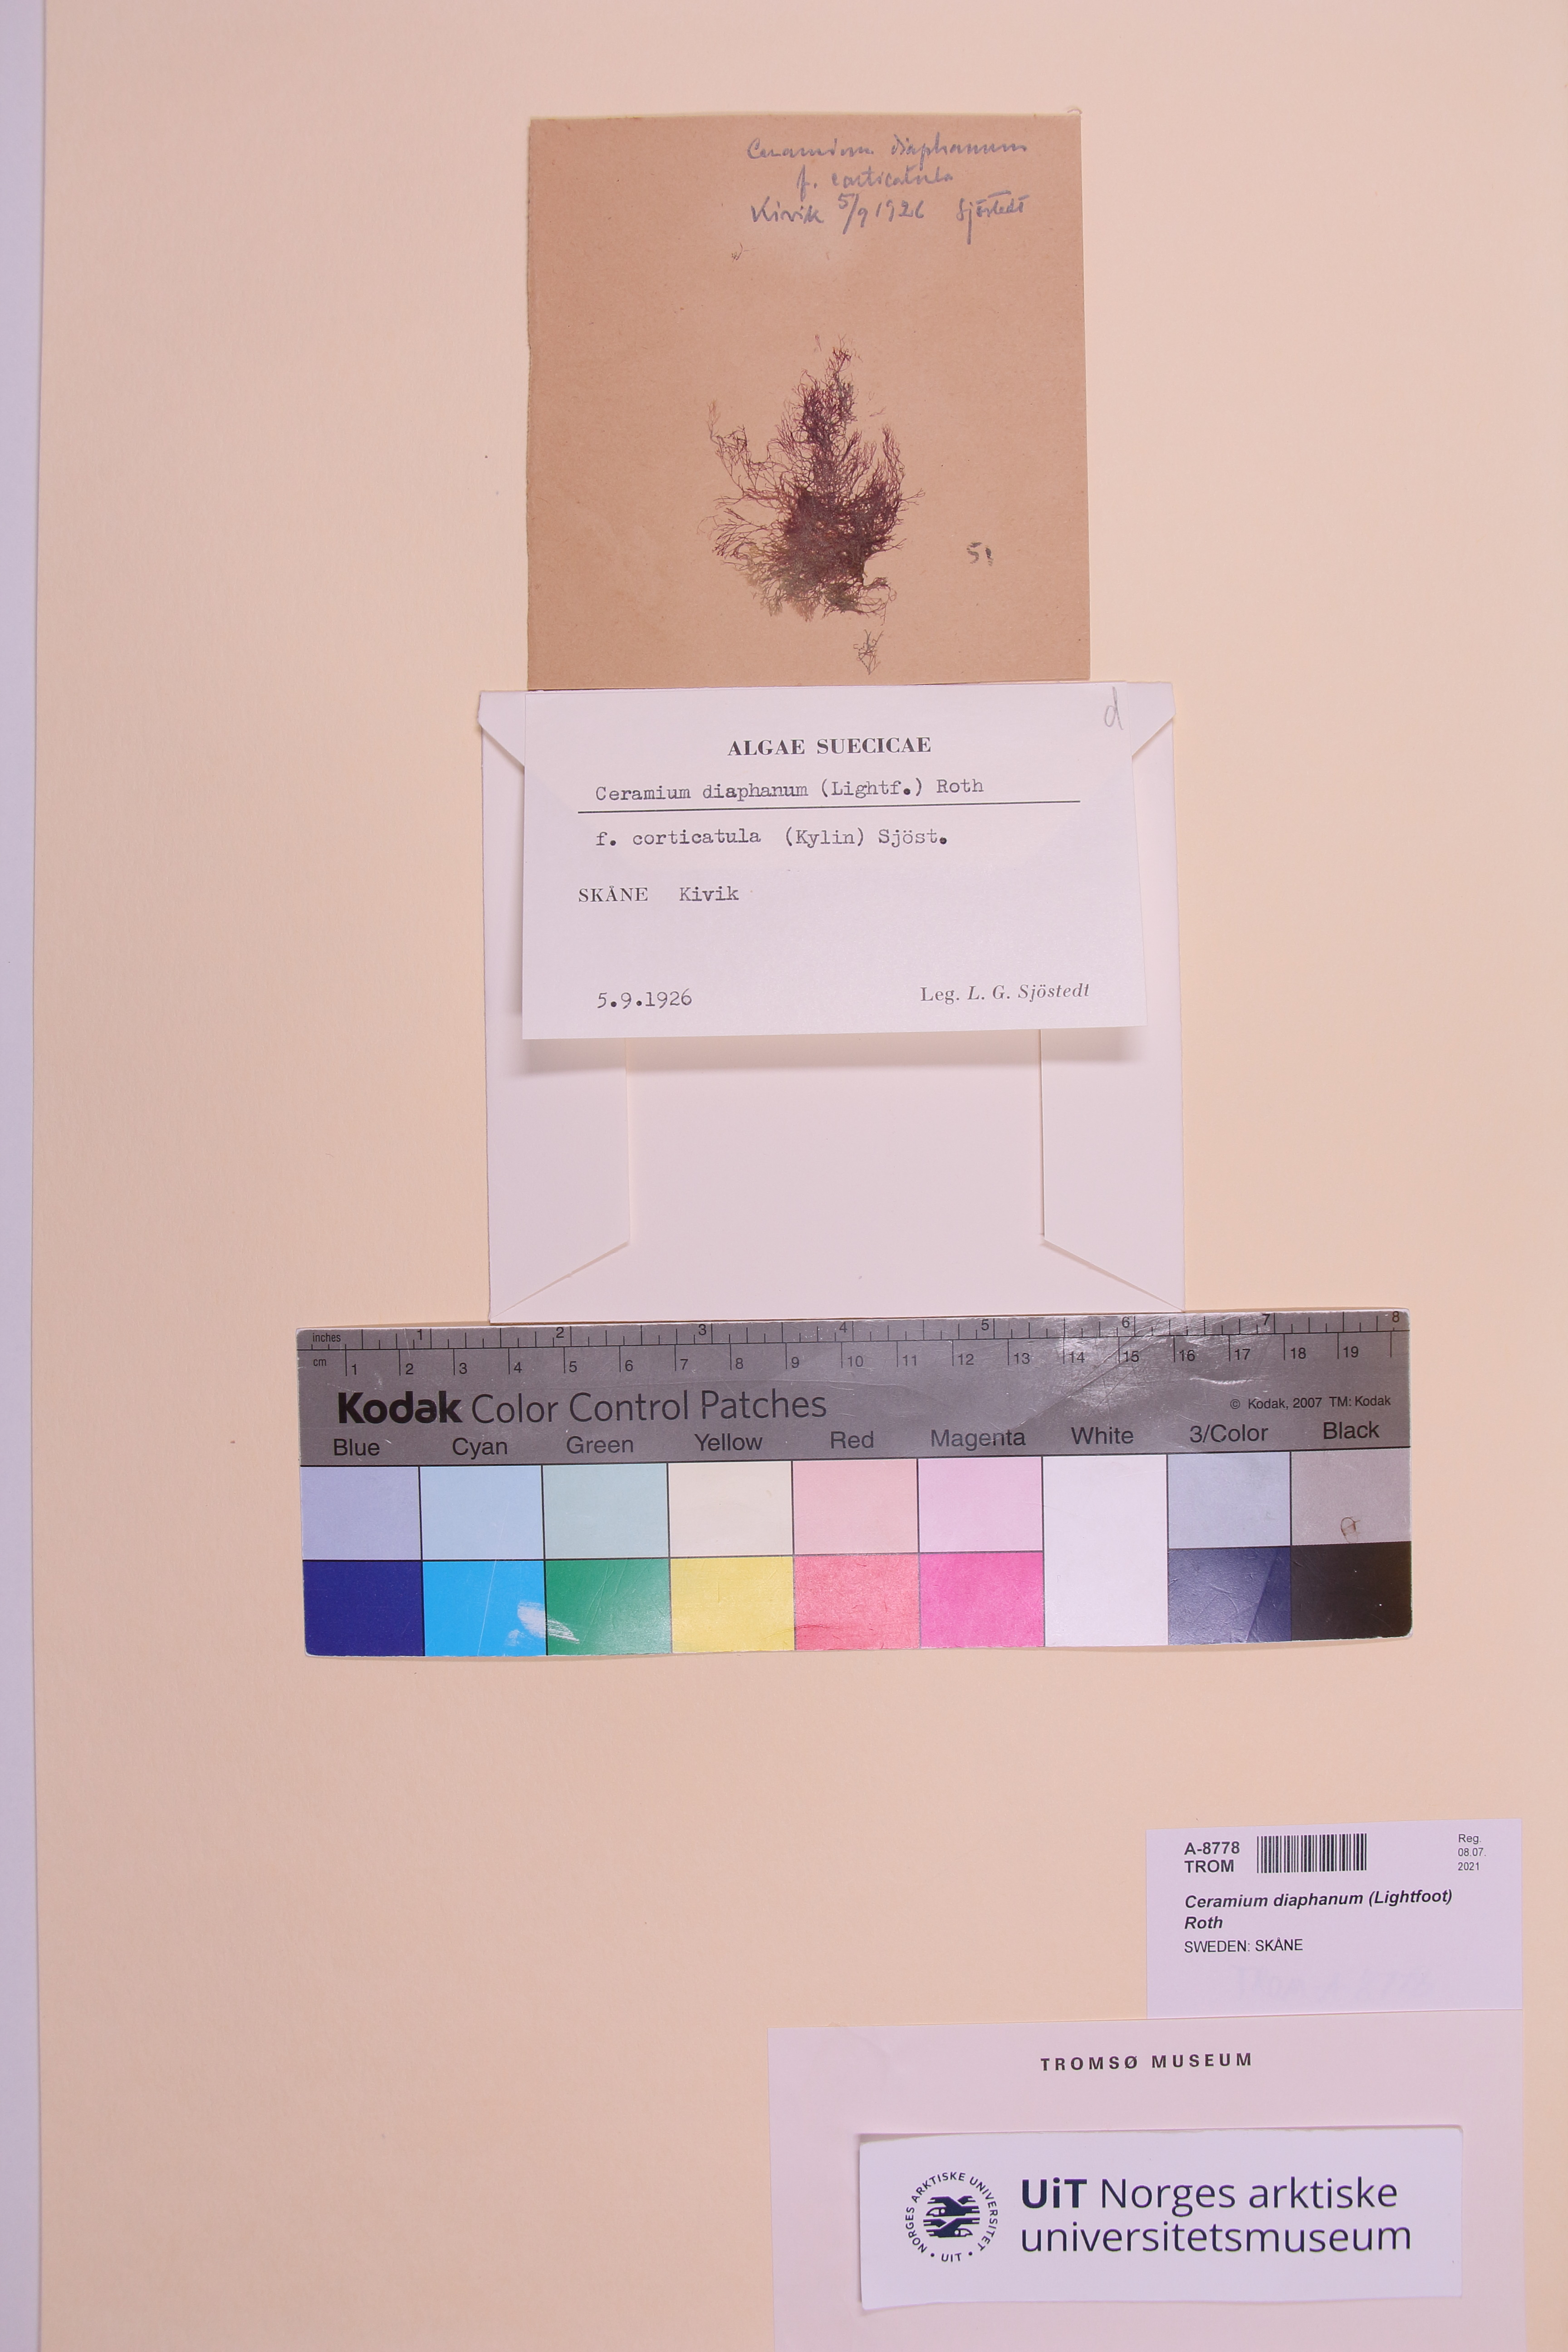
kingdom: Plantae
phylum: Rhodophyta
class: Florideophyceae
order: Ceramiales
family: Ceramiaceae
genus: Ceramium
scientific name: Ceramium diaphanum
